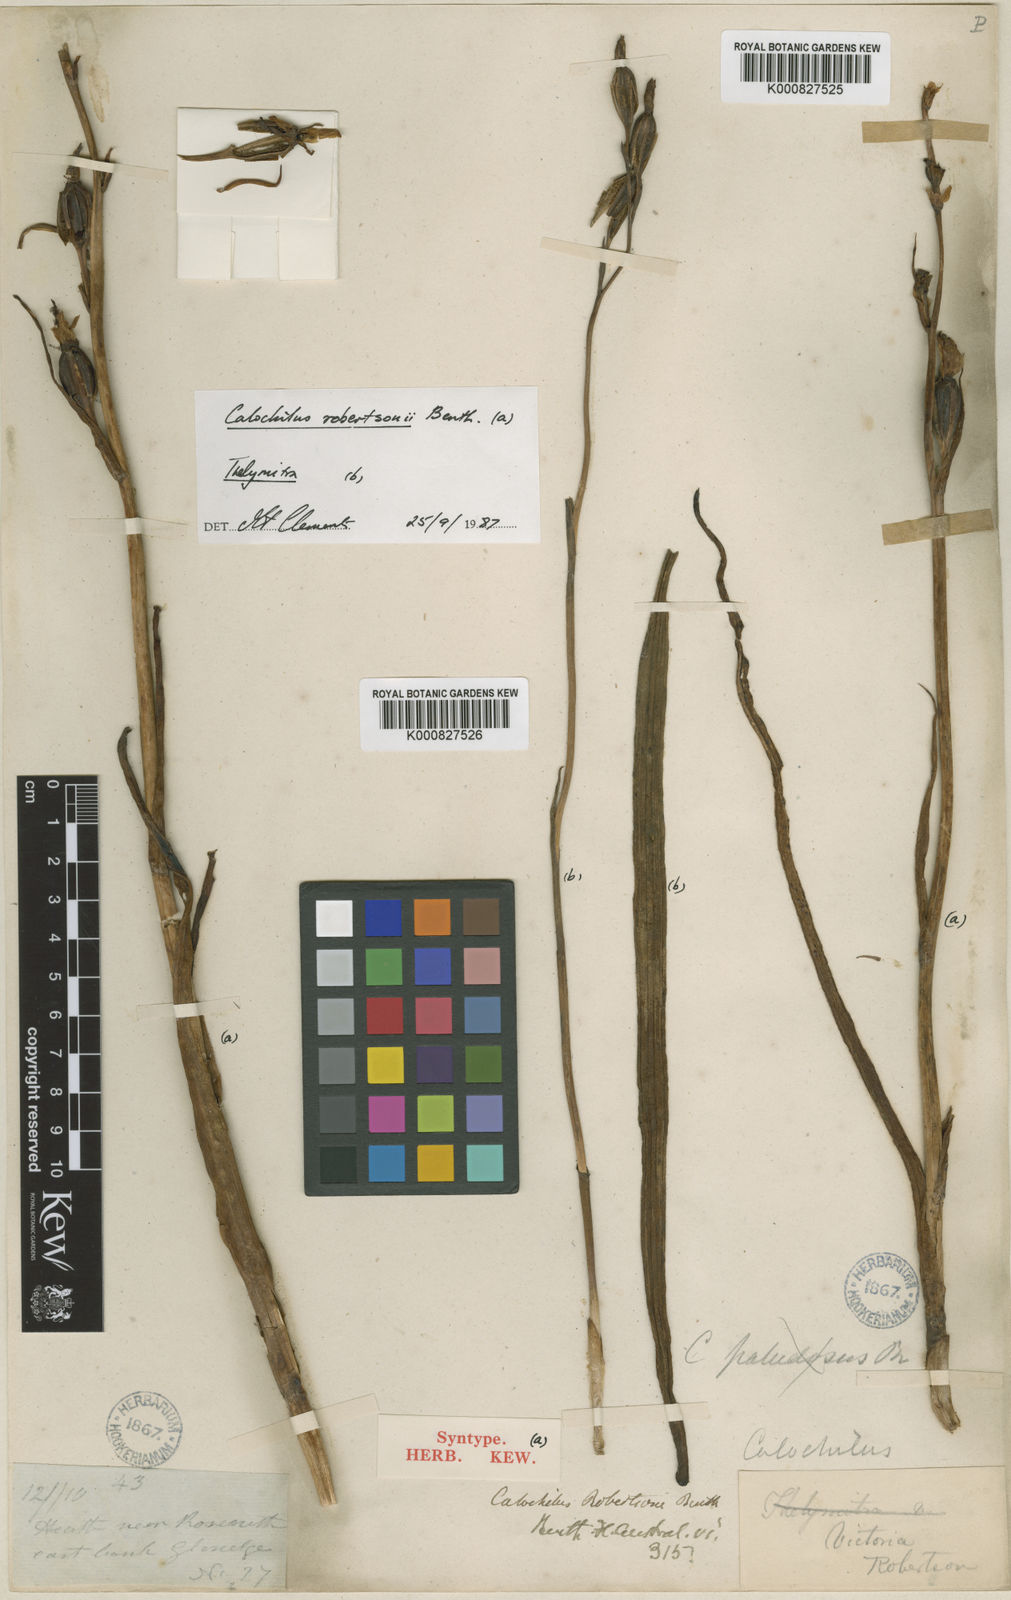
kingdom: Plantae
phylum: Tracheophyta
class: Liliopsida
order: Asparagales
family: Orchidaceae
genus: Calochilus
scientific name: Calochilus robertsonii
